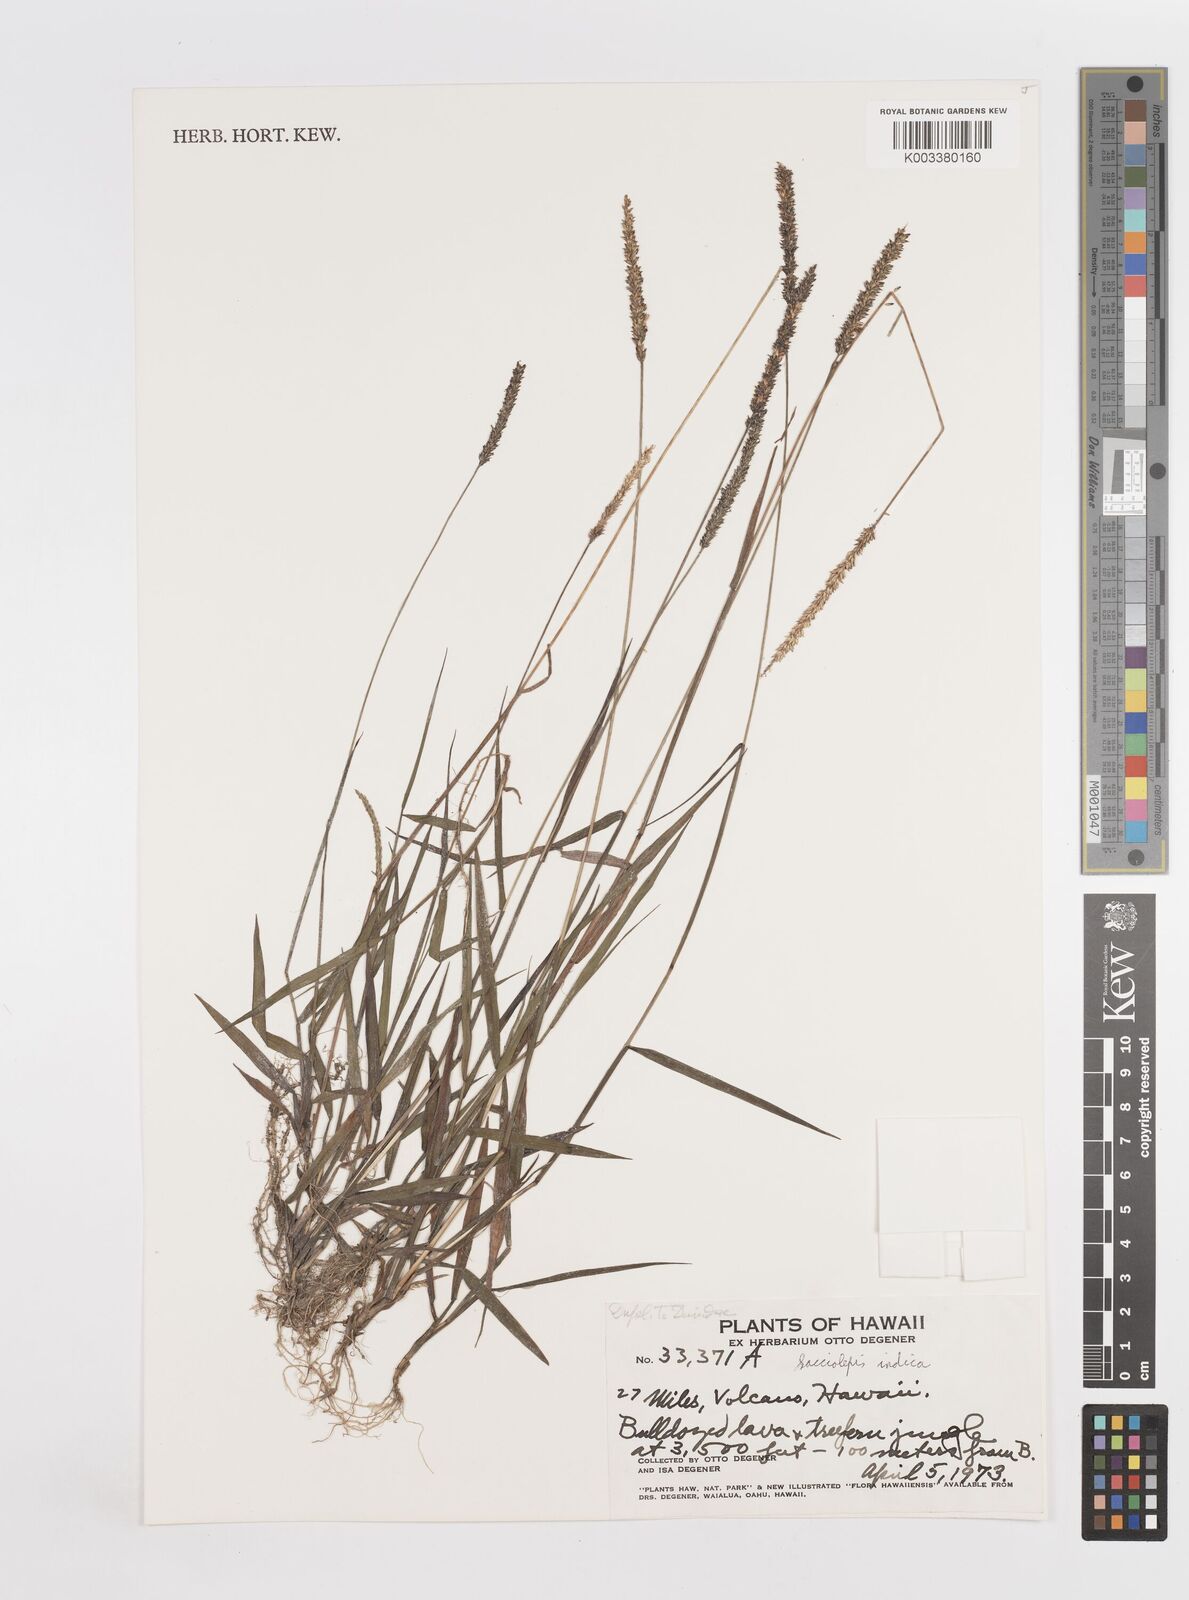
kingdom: Plantae
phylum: Tracheophyta
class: Liliopsida
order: Poales
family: Poaceae
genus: Sacciolepis
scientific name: Sacciolepis indica
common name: Glenwoodgrass
